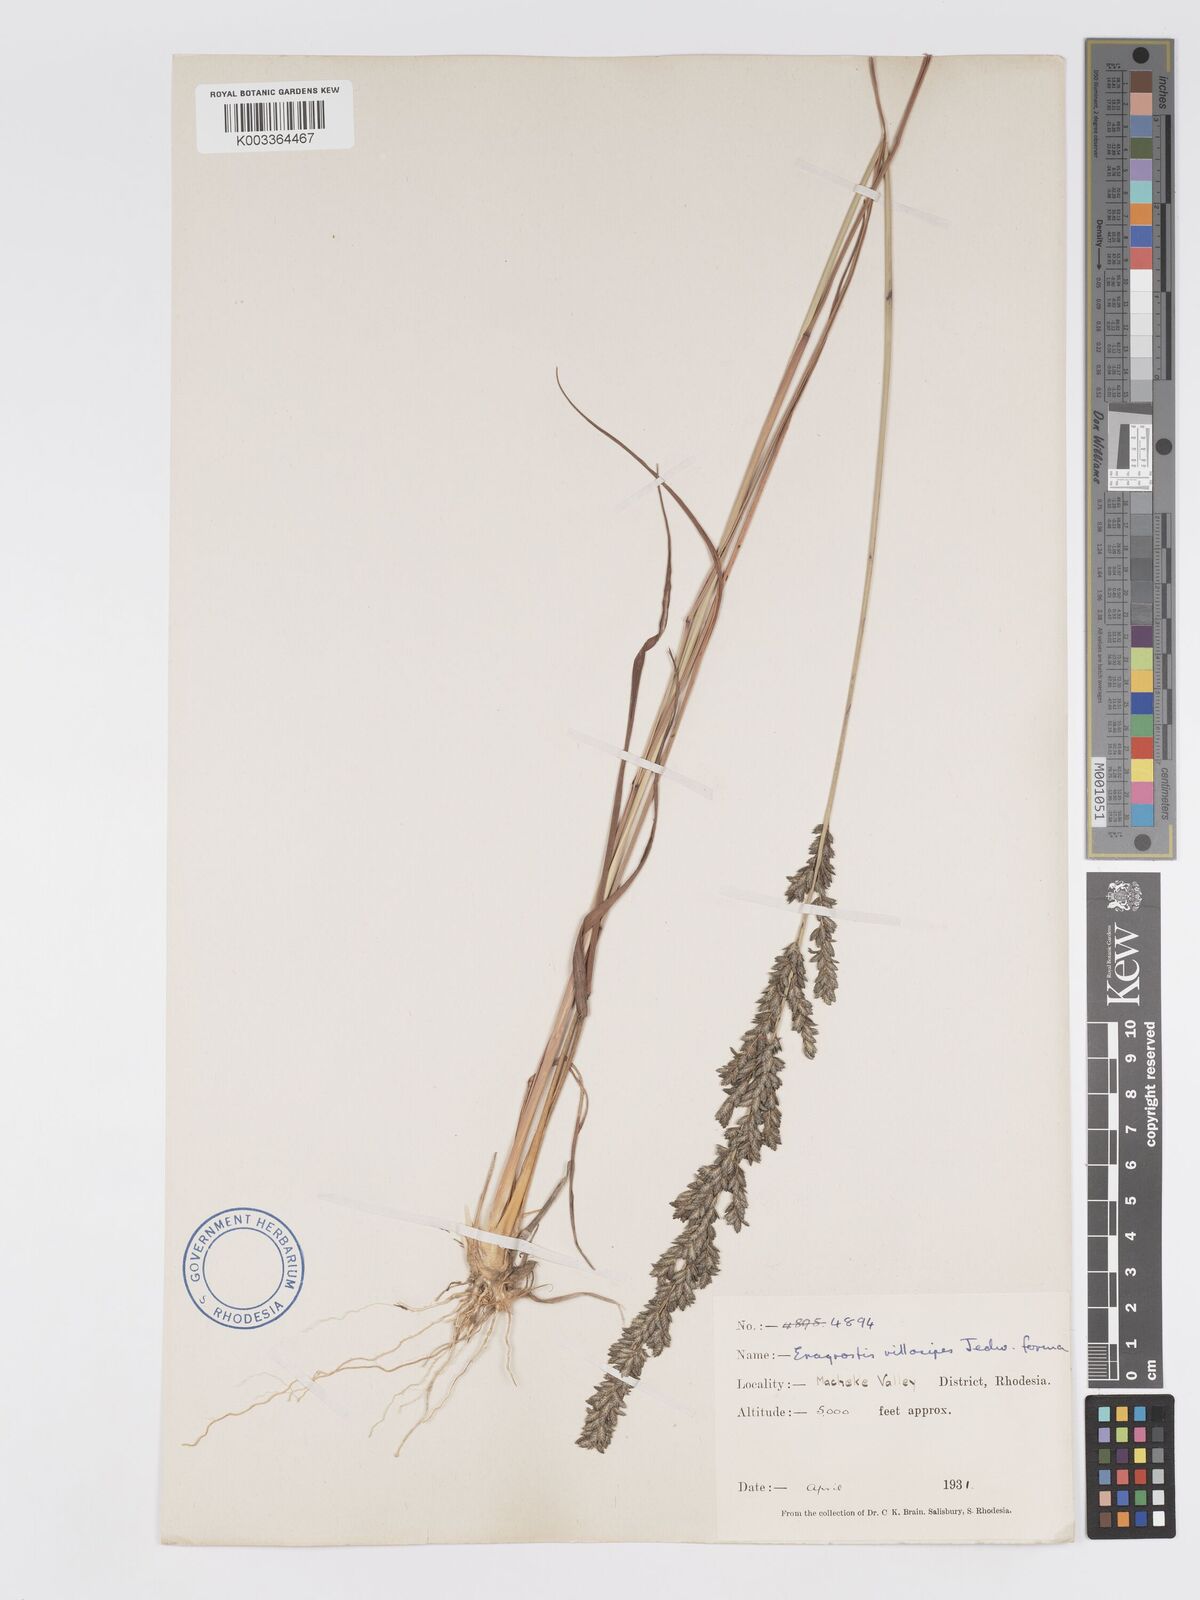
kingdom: Plantae
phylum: Tracheophyta
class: Liliopsida
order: Poales
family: Poaceae
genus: Eragrostis
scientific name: Eragrostis sclerantha
